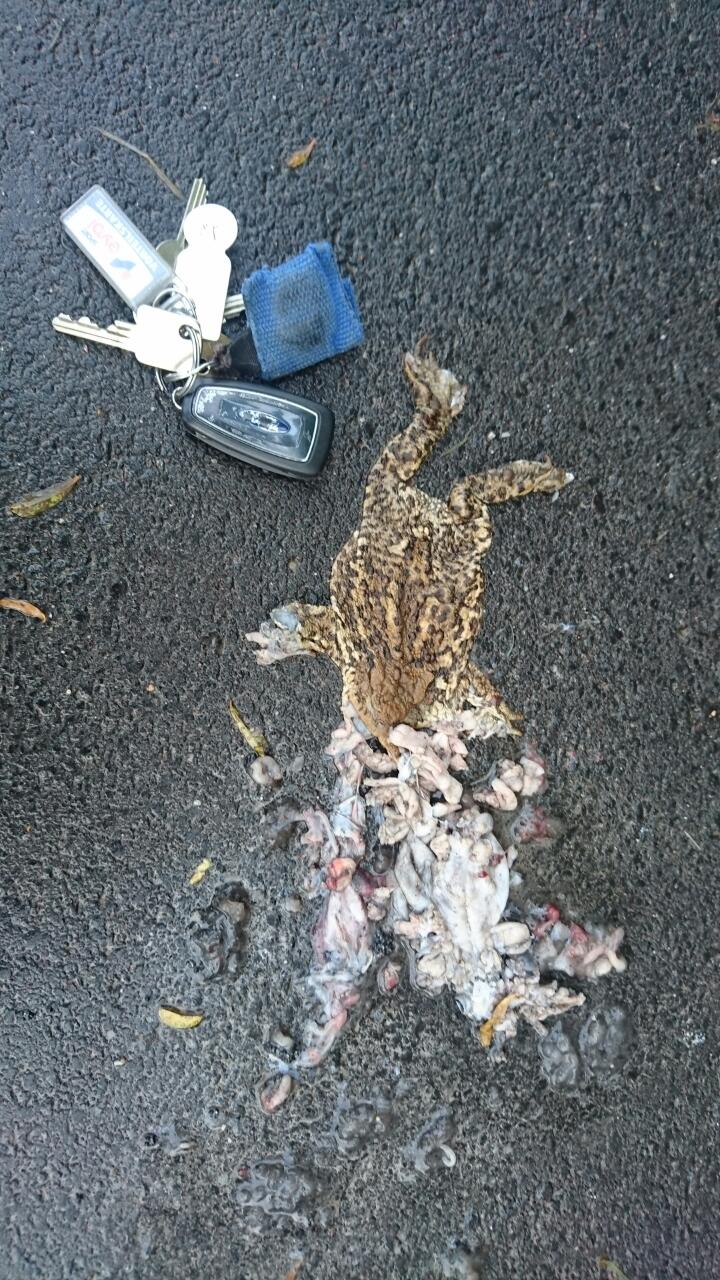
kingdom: Animalia
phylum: Chordata
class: Amphibia
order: Anura
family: Bufonidae
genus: Bufo
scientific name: Bufo bufo
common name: Common toad
